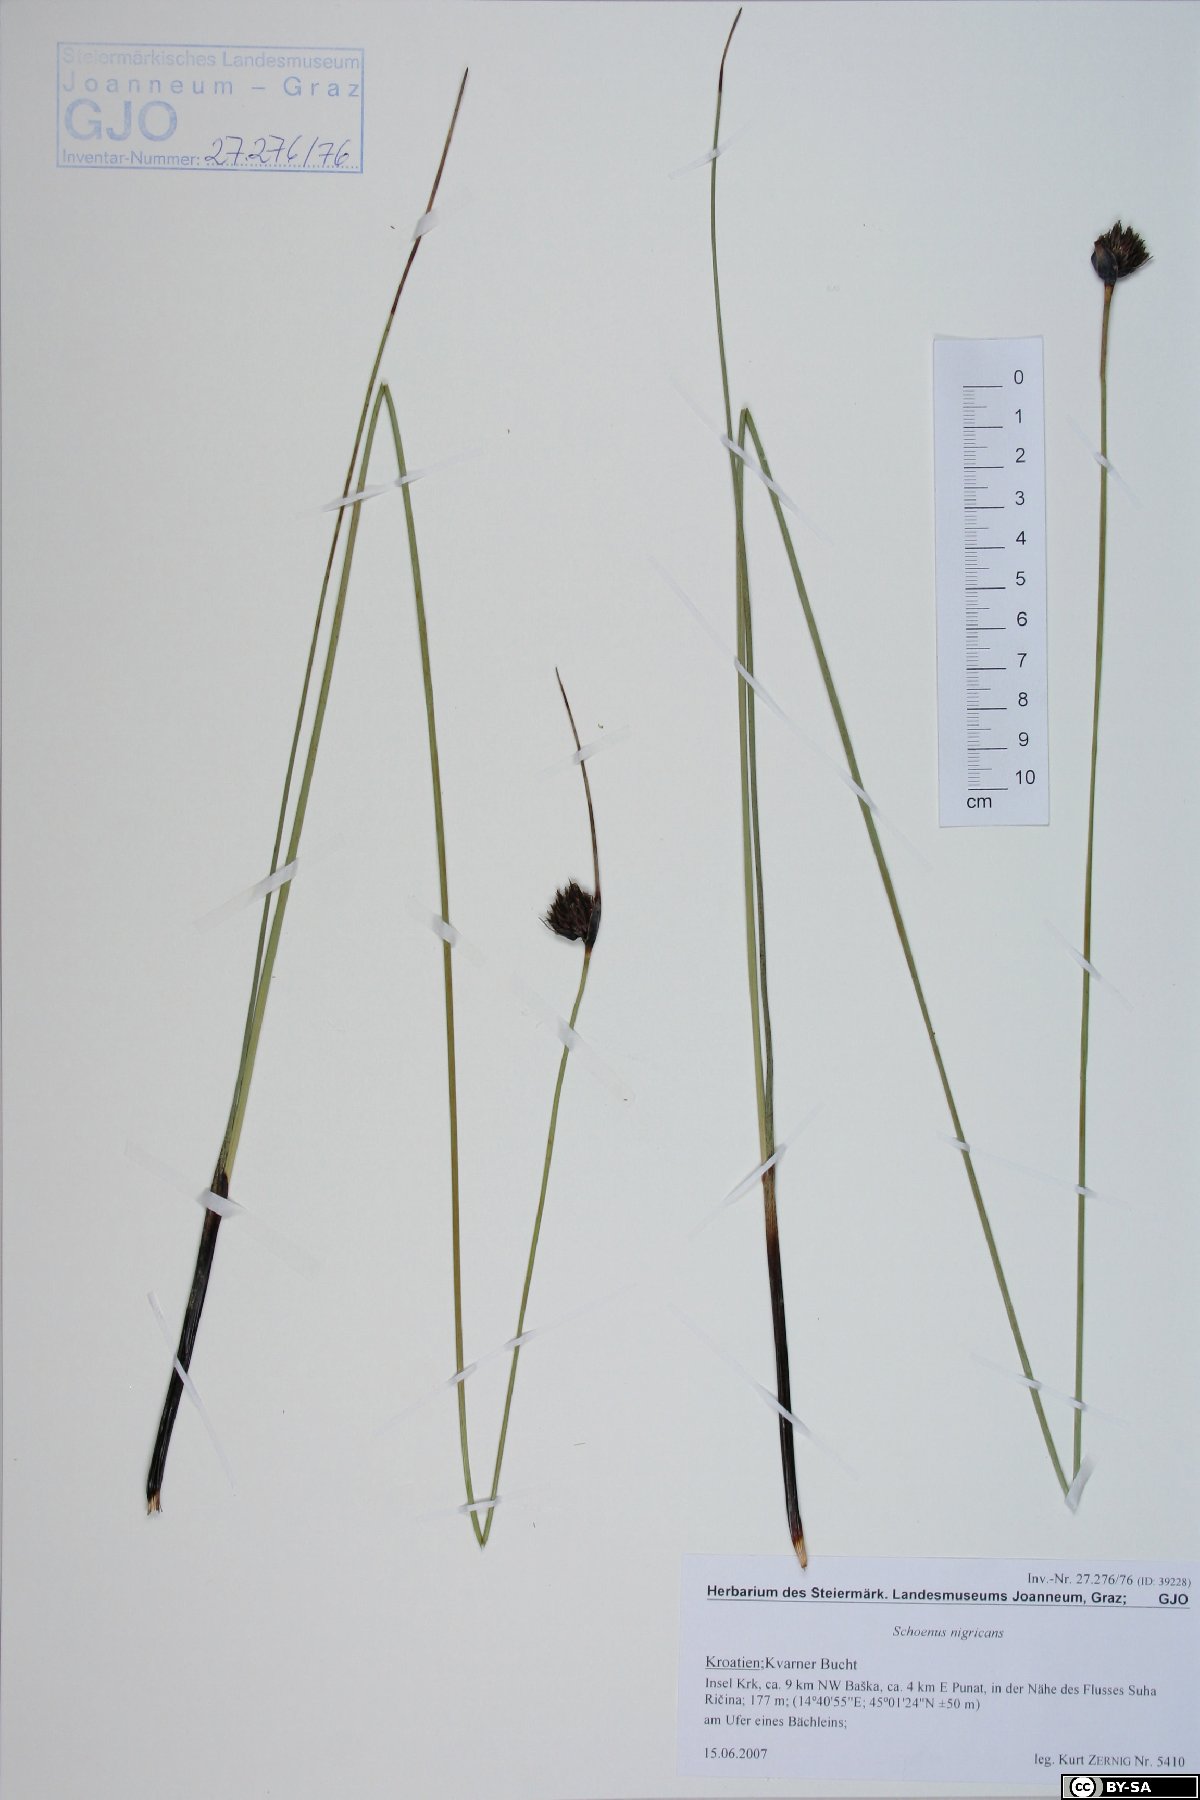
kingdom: Plantae
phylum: Tracheophyta
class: Liliopsida
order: Poales
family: Cyperaceae
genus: Schoenus
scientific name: Schoenus nigricans
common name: Black bog-rush
